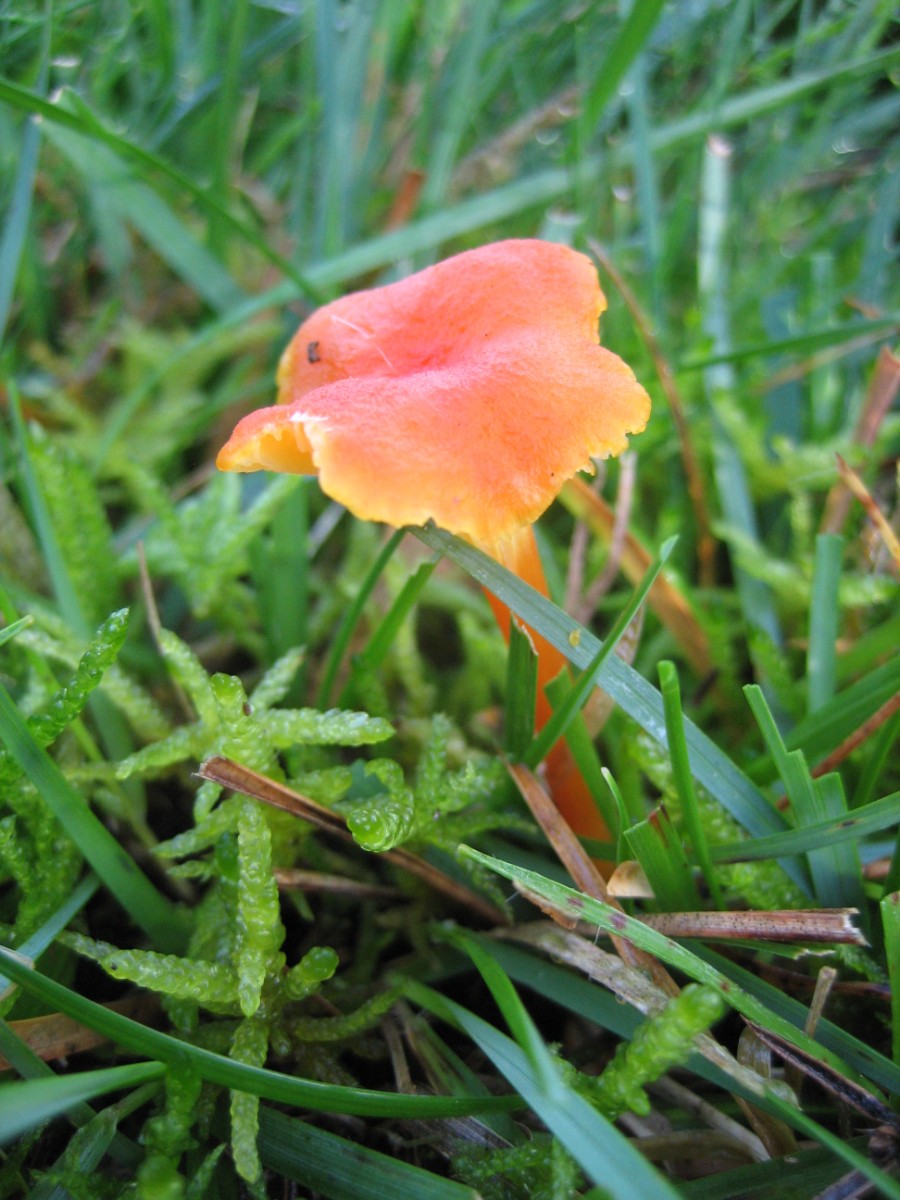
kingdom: Fungi
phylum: Basidiomycota
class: Agaricomycetes
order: Agaricales
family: Hygrophoraceae
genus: Hygrocybe
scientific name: Hygrocybe cantharellus
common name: kantarel-vokshat
